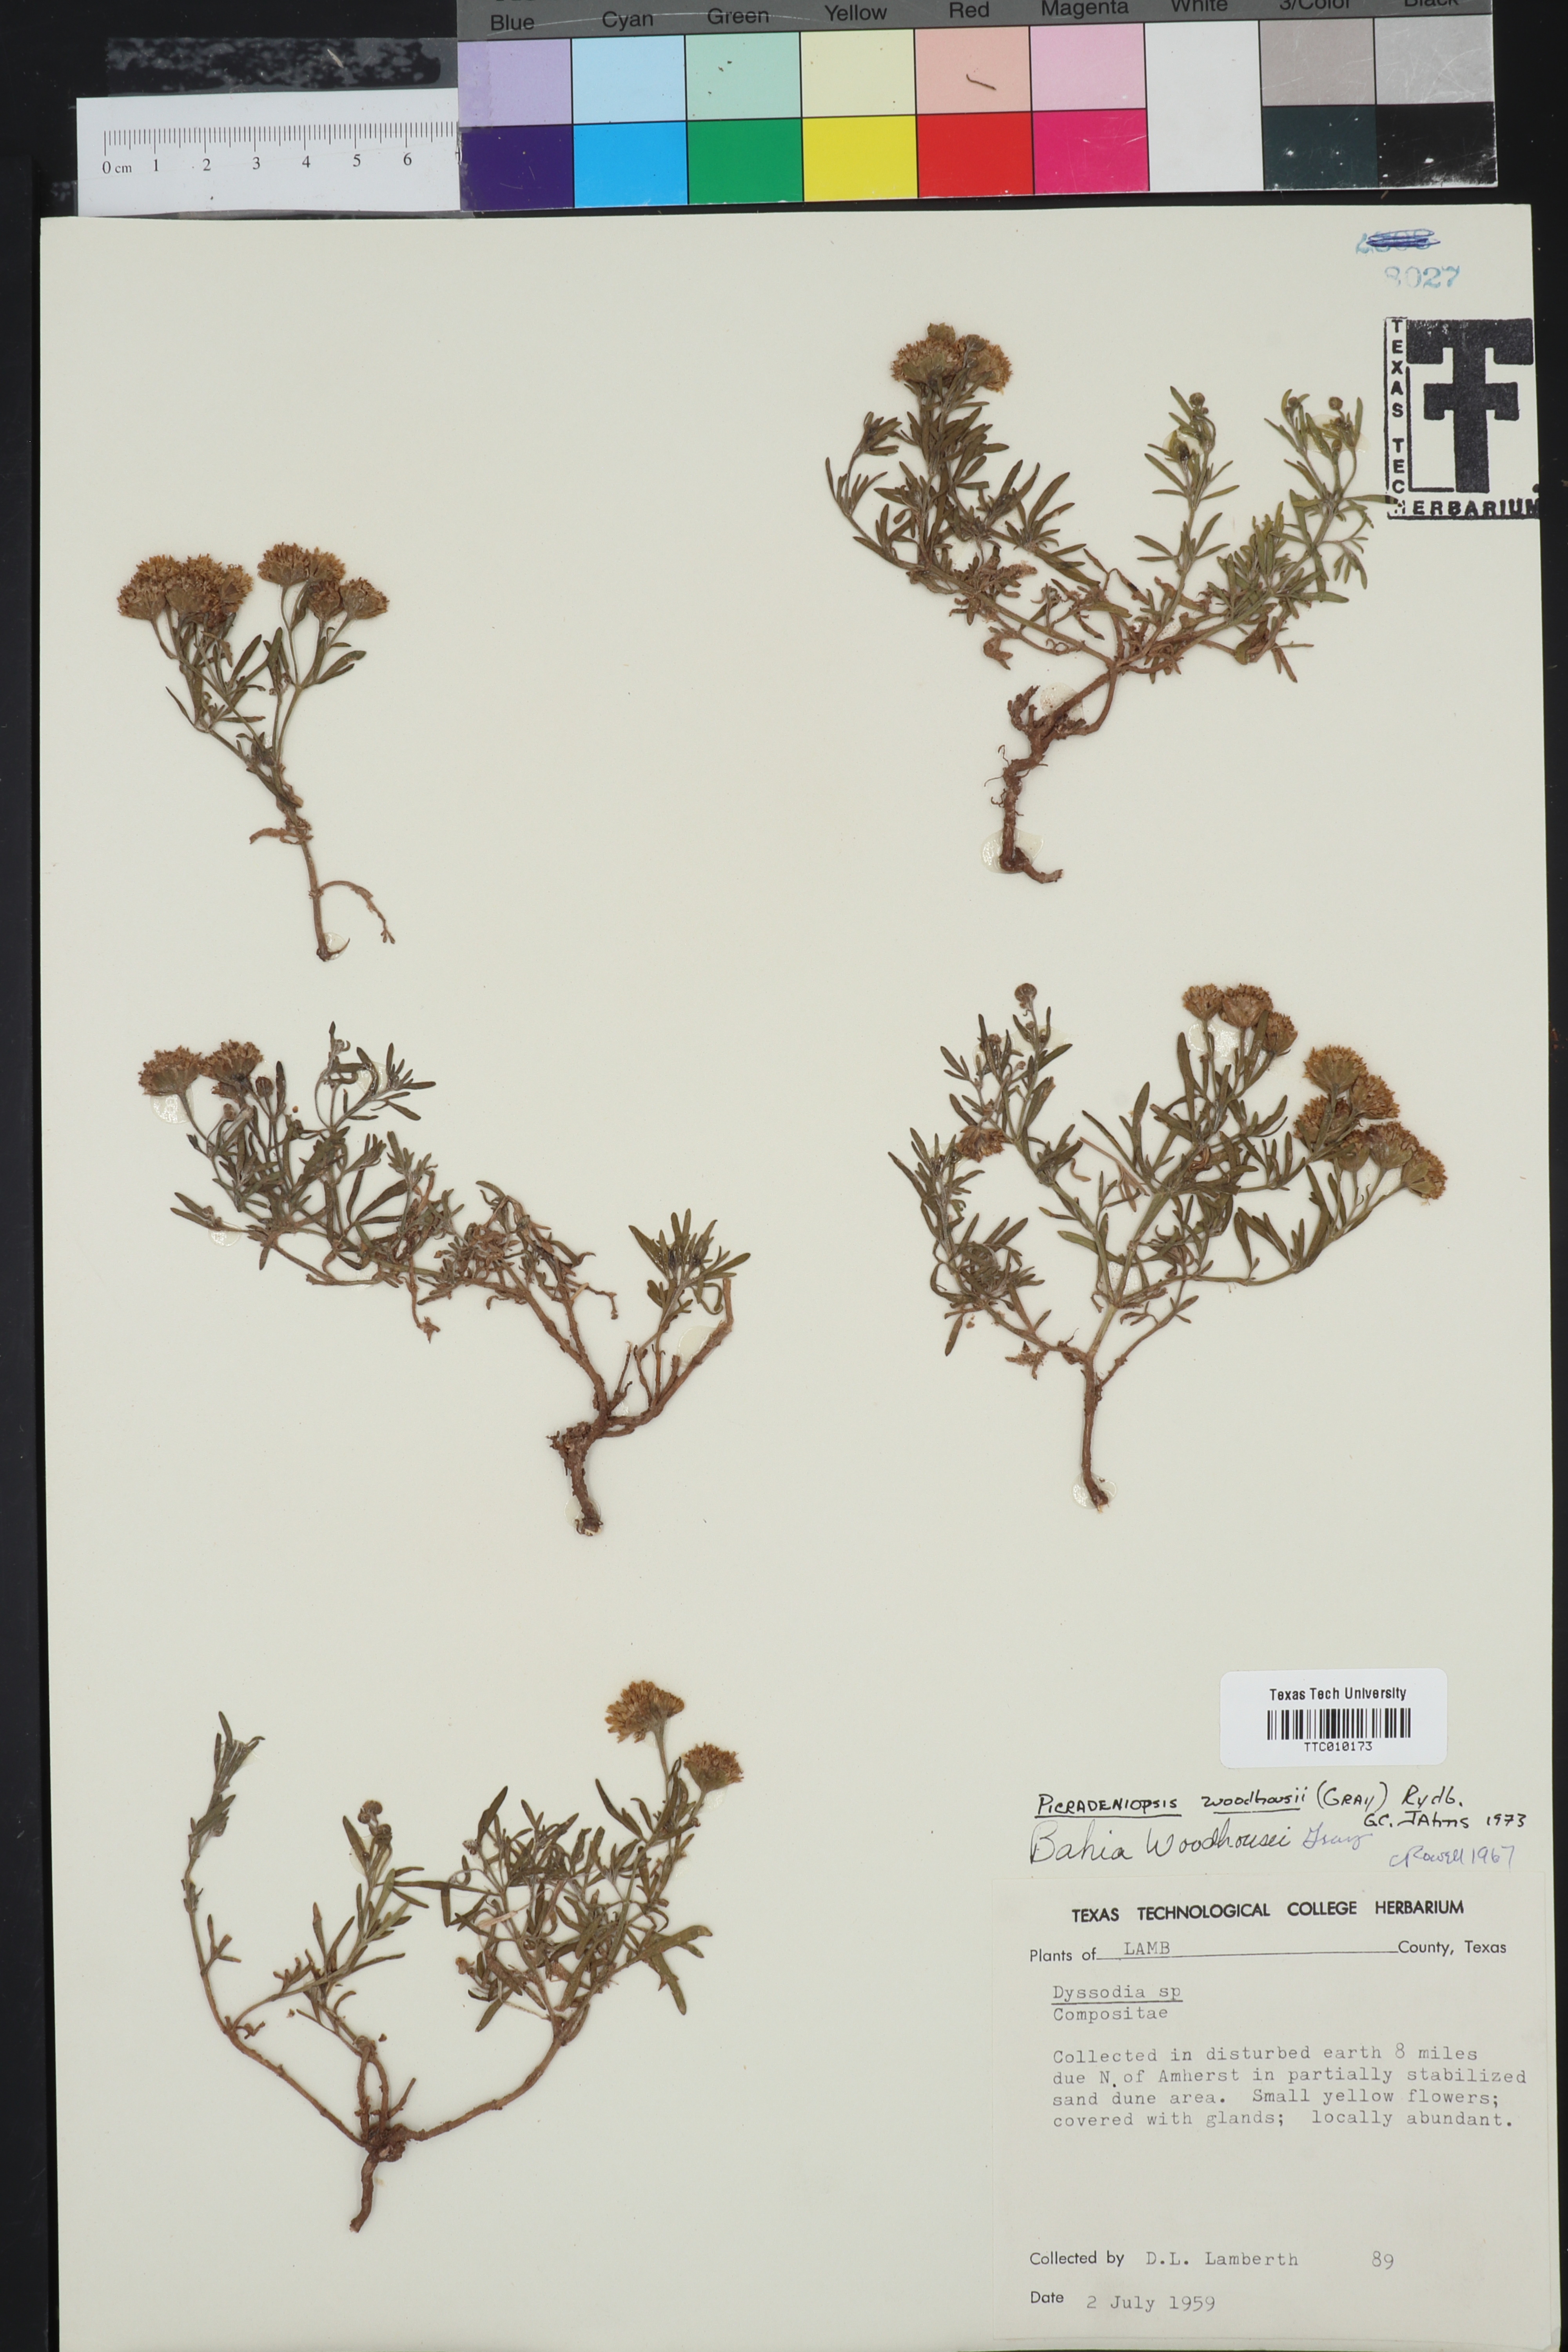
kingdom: Plantae
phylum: Tracheophyta
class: Magnoliopsida
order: Asterales
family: Asteraceae
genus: Picradeniopsis
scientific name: Picradeniopsis woodhousei
